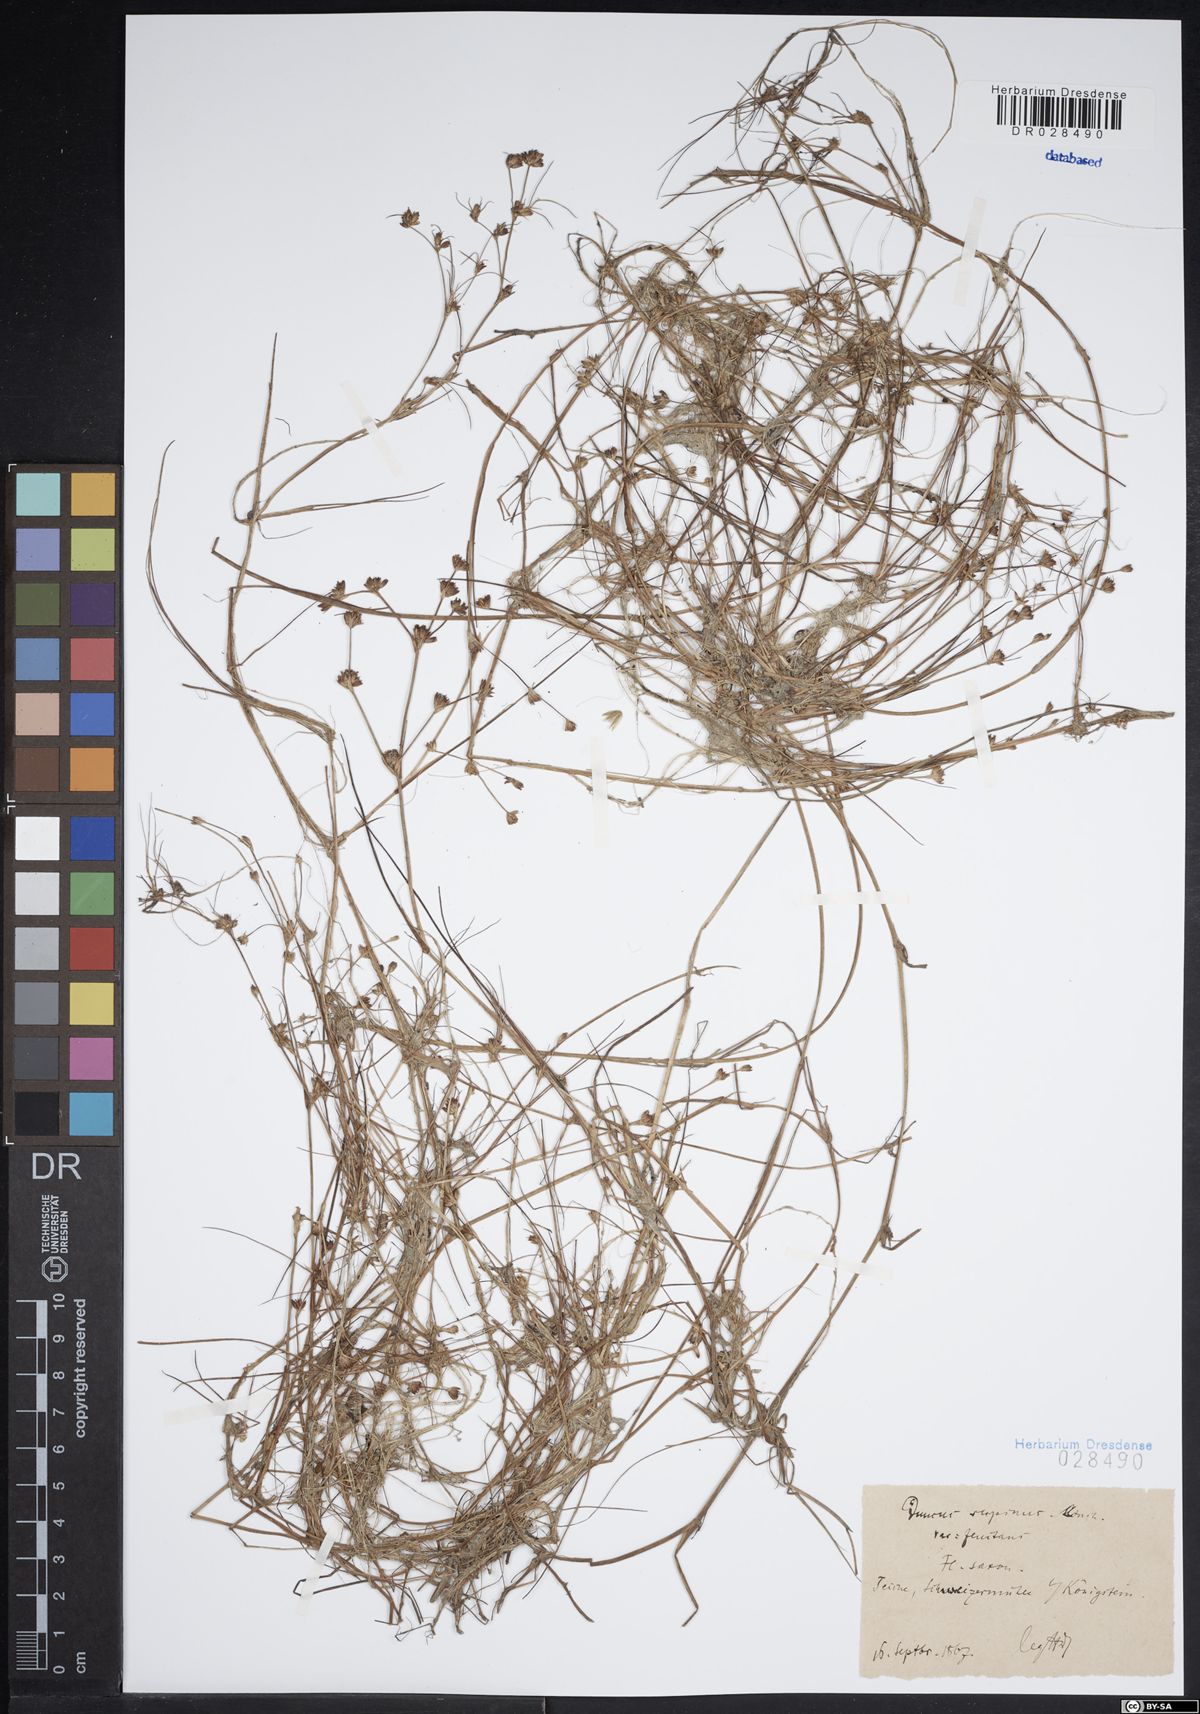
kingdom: Plantae
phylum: Tracheophyta
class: Liliopsida
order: Poales
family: Juncaceae
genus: Juncus
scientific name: Juncus bulbosus
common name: Bulbous rush
